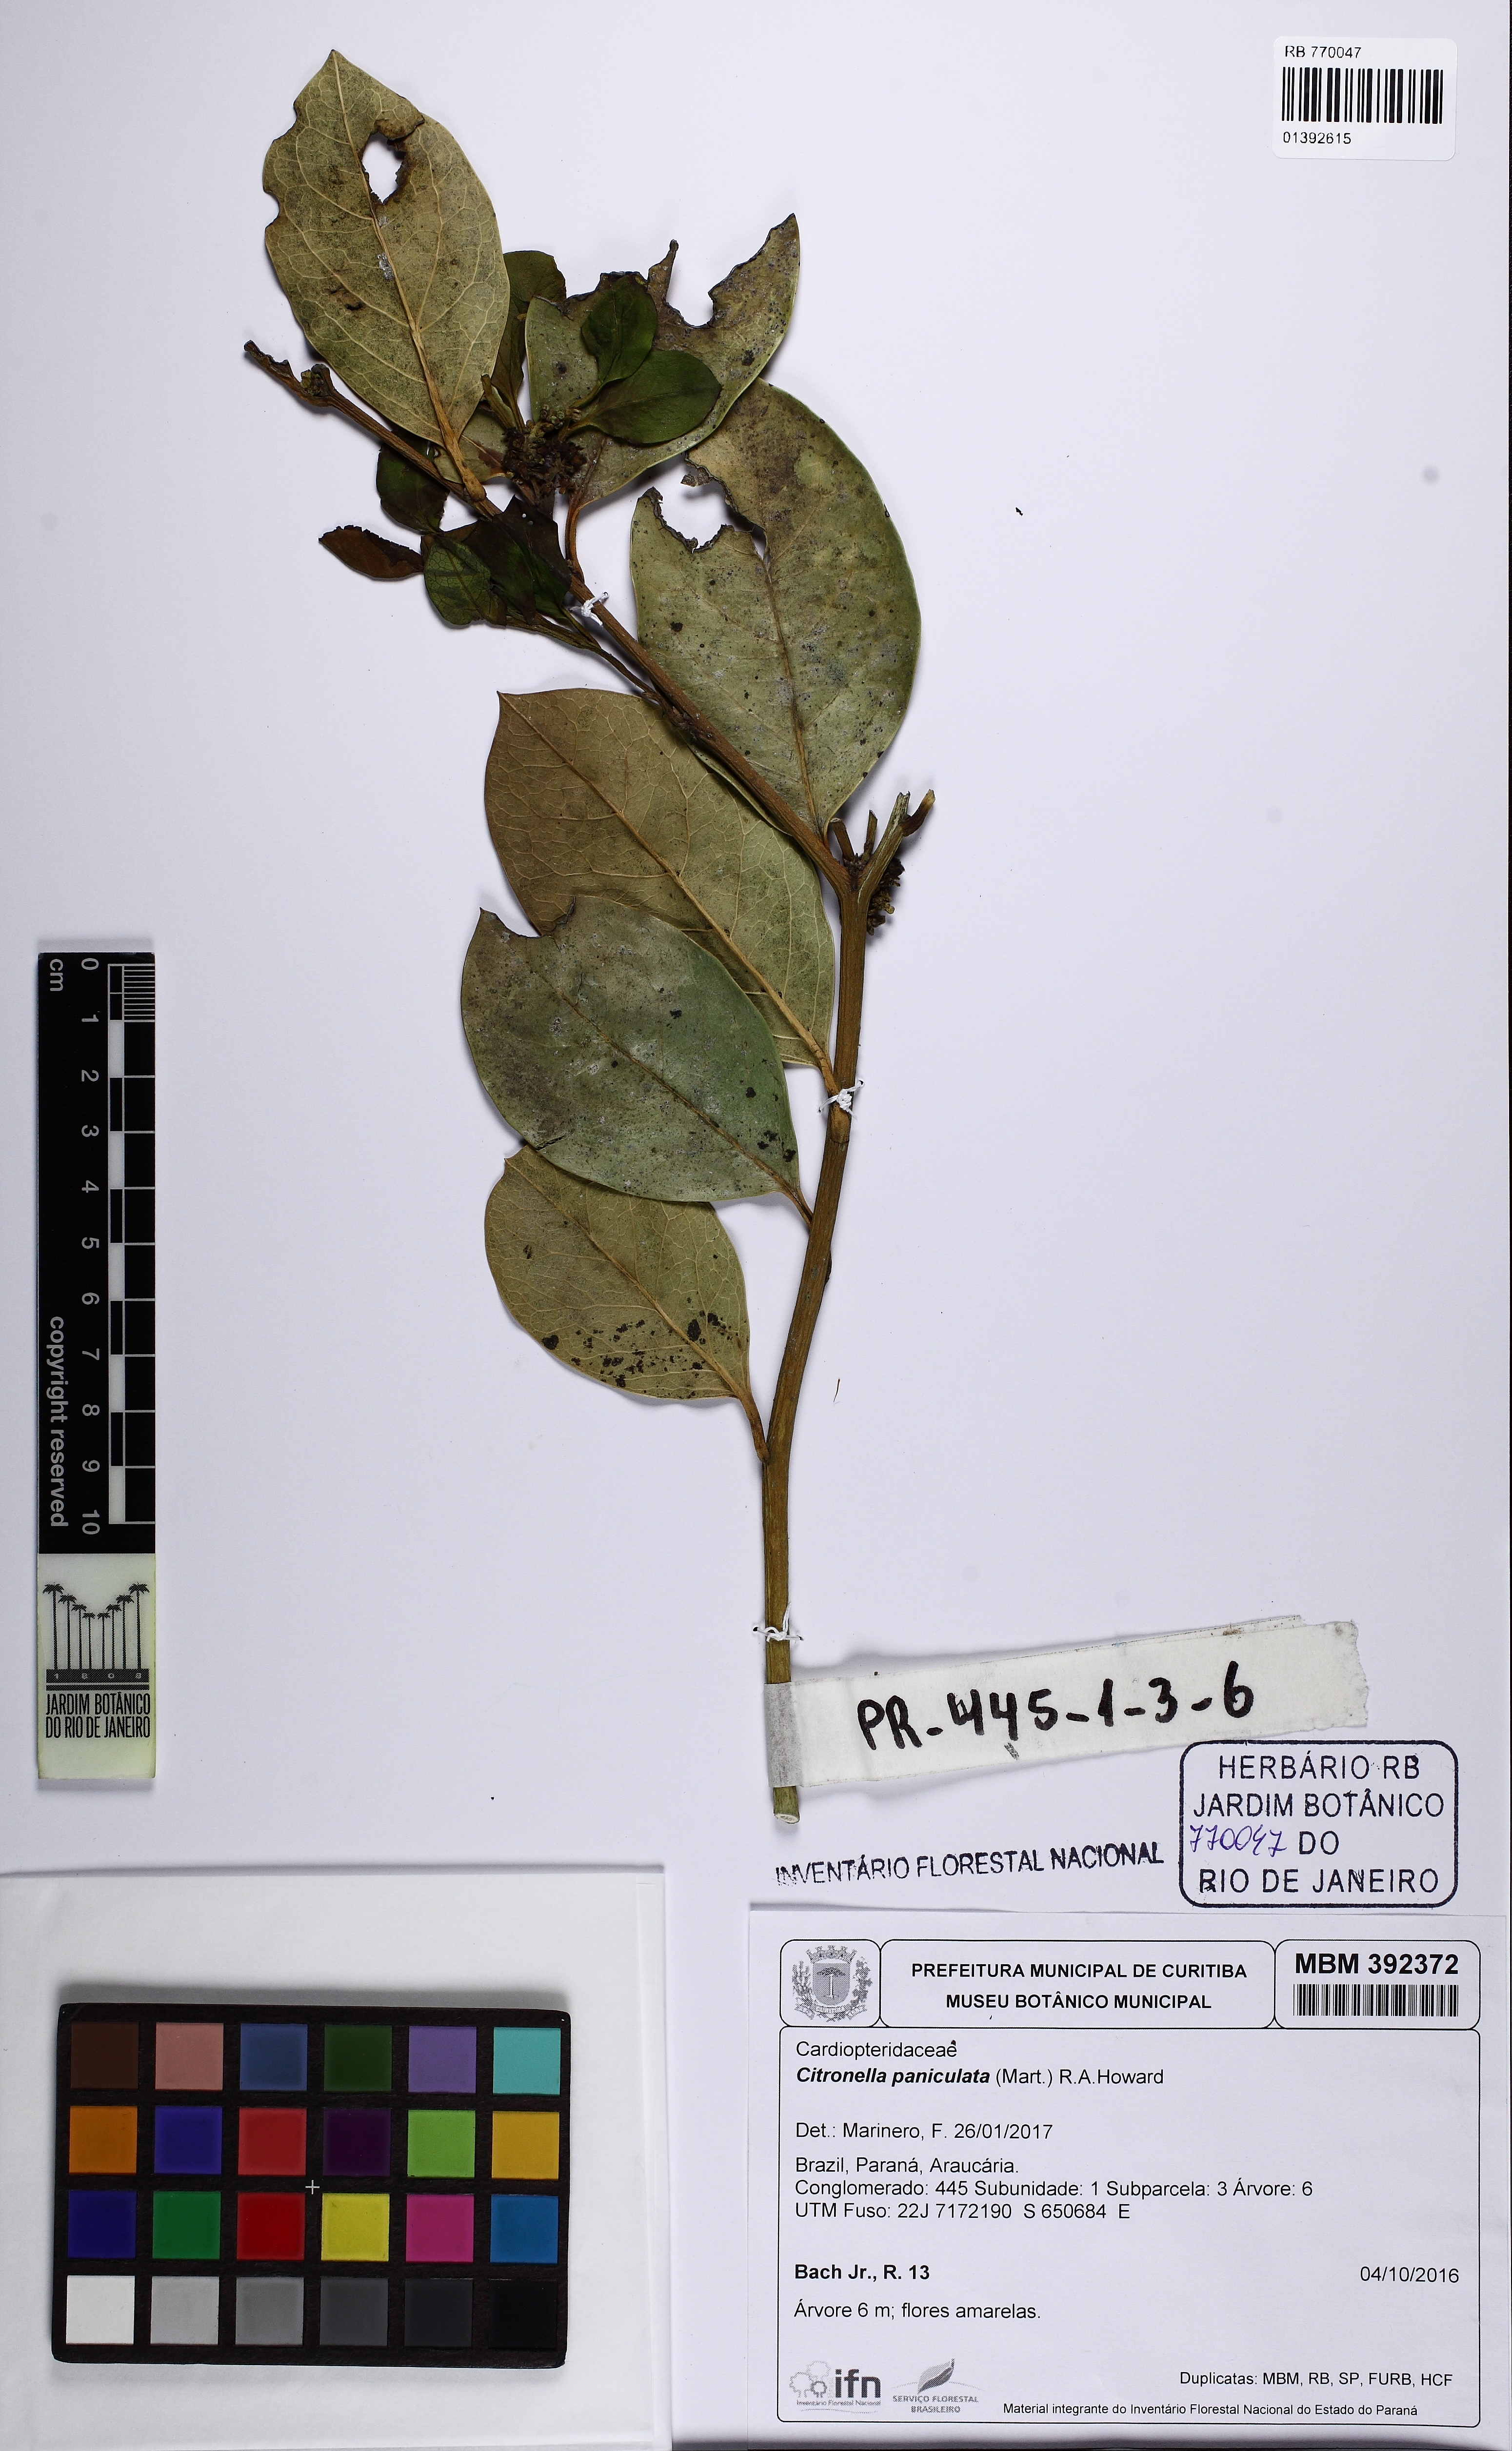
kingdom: Plantae
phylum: Tracheophyta
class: Magnoliopsida
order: Cardiopteridales
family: Cardiopteridaceae
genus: Citronella
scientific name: Citronella paniculata
